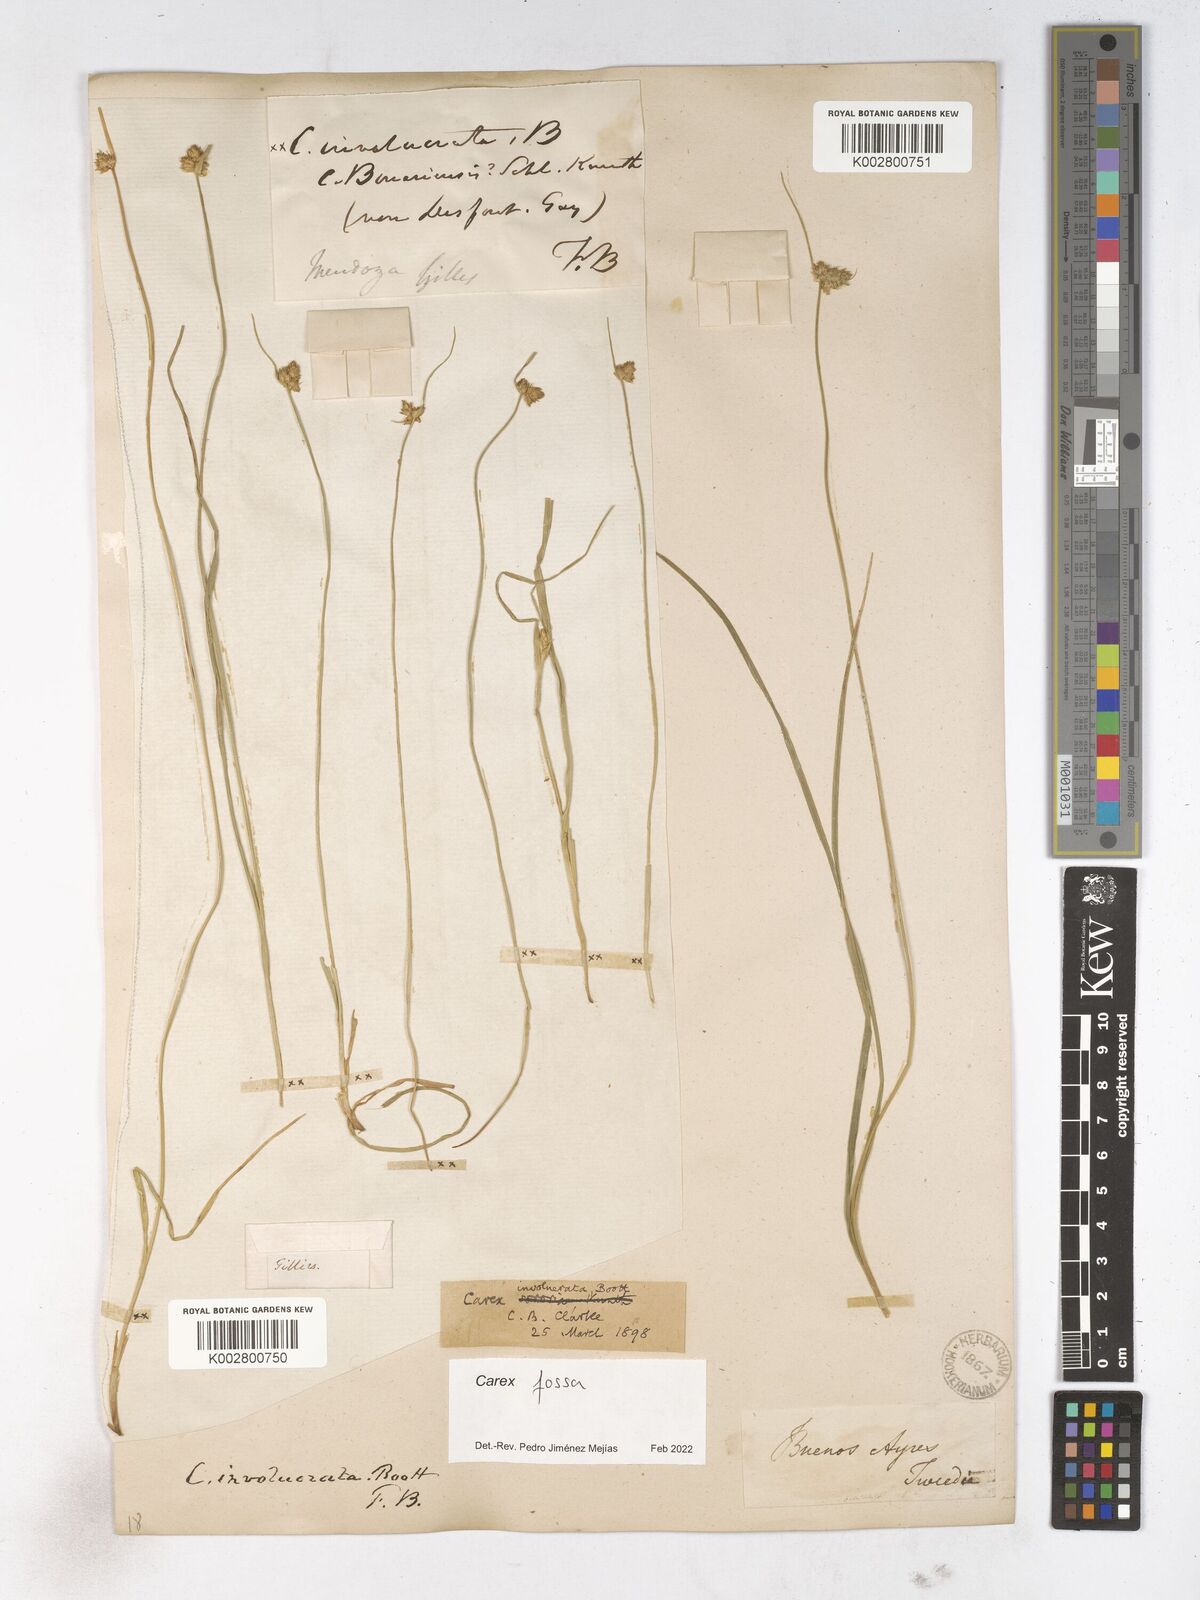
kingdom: Plantae
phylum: Tracheophyta
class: Liliopsida
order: Poales
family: Cyperaceae
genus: Carex
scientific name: Carex
